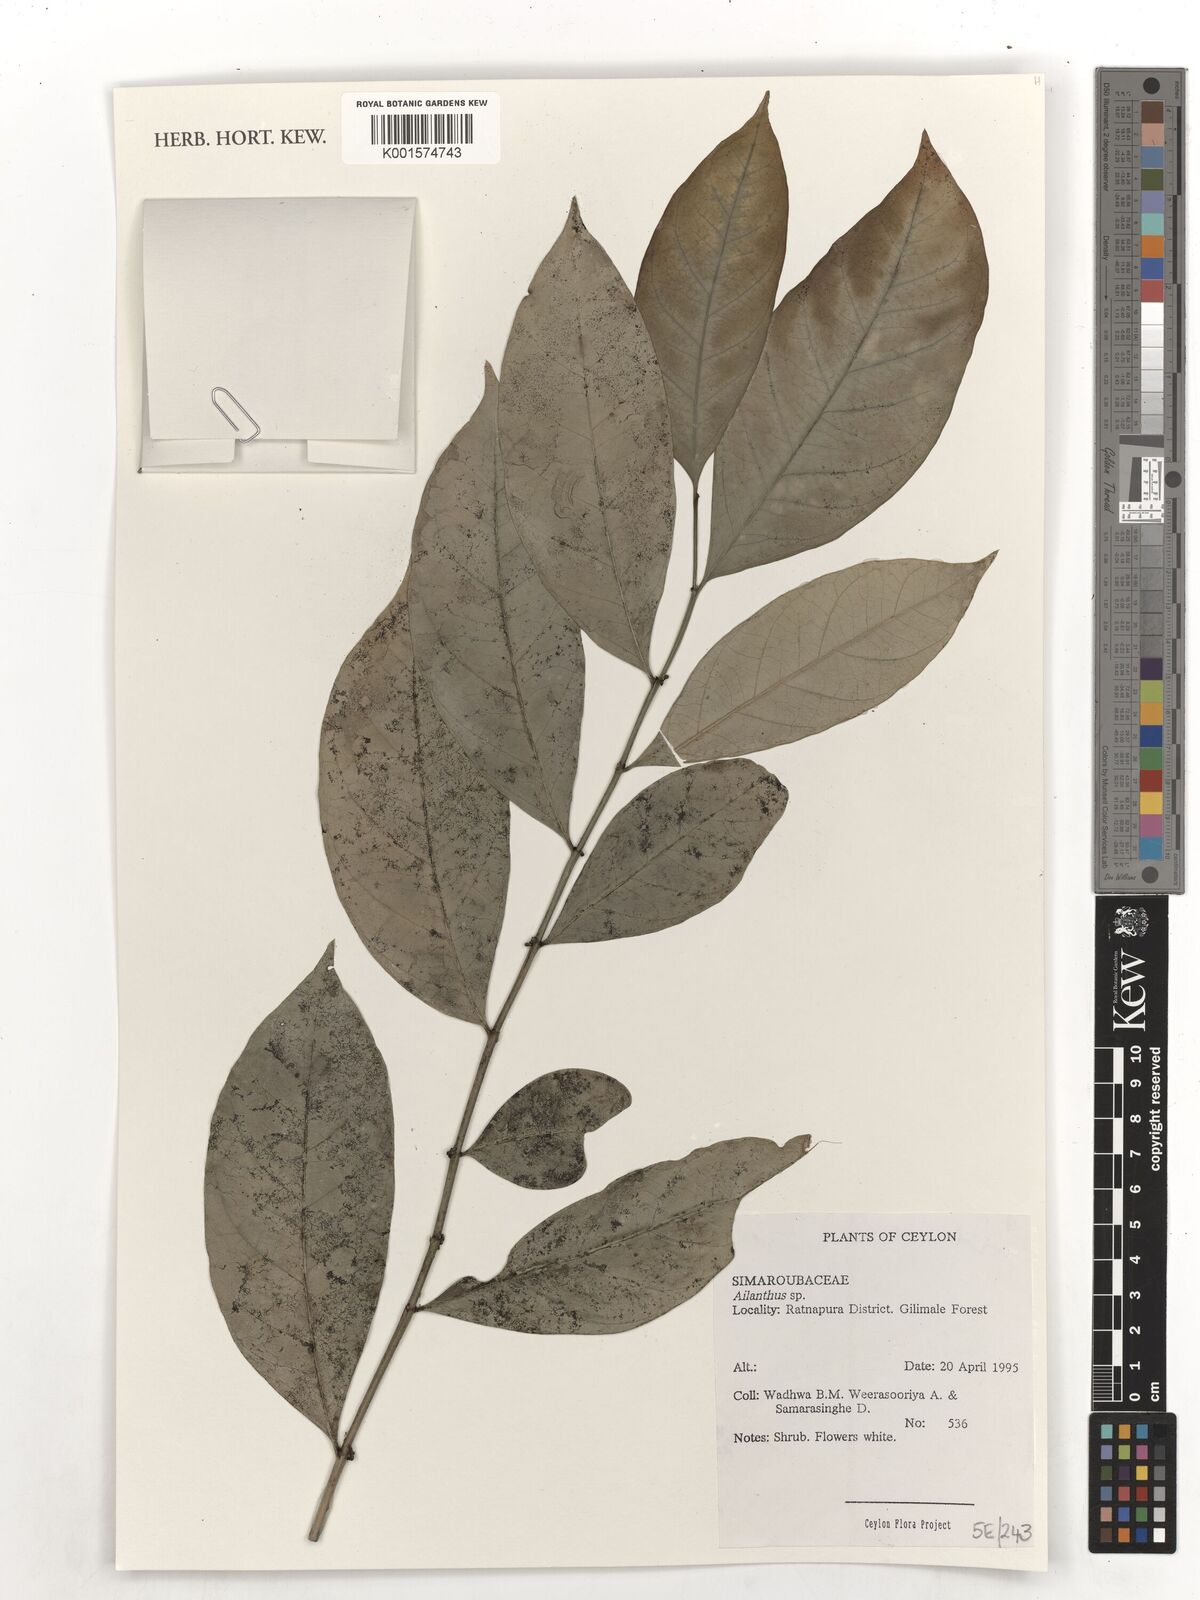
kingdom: Plantae
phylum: Tracheophyta
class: Magnoliopsida
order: Sapindales
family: Simaroubaceae
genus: Ailanthus
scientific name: Ailanthus
